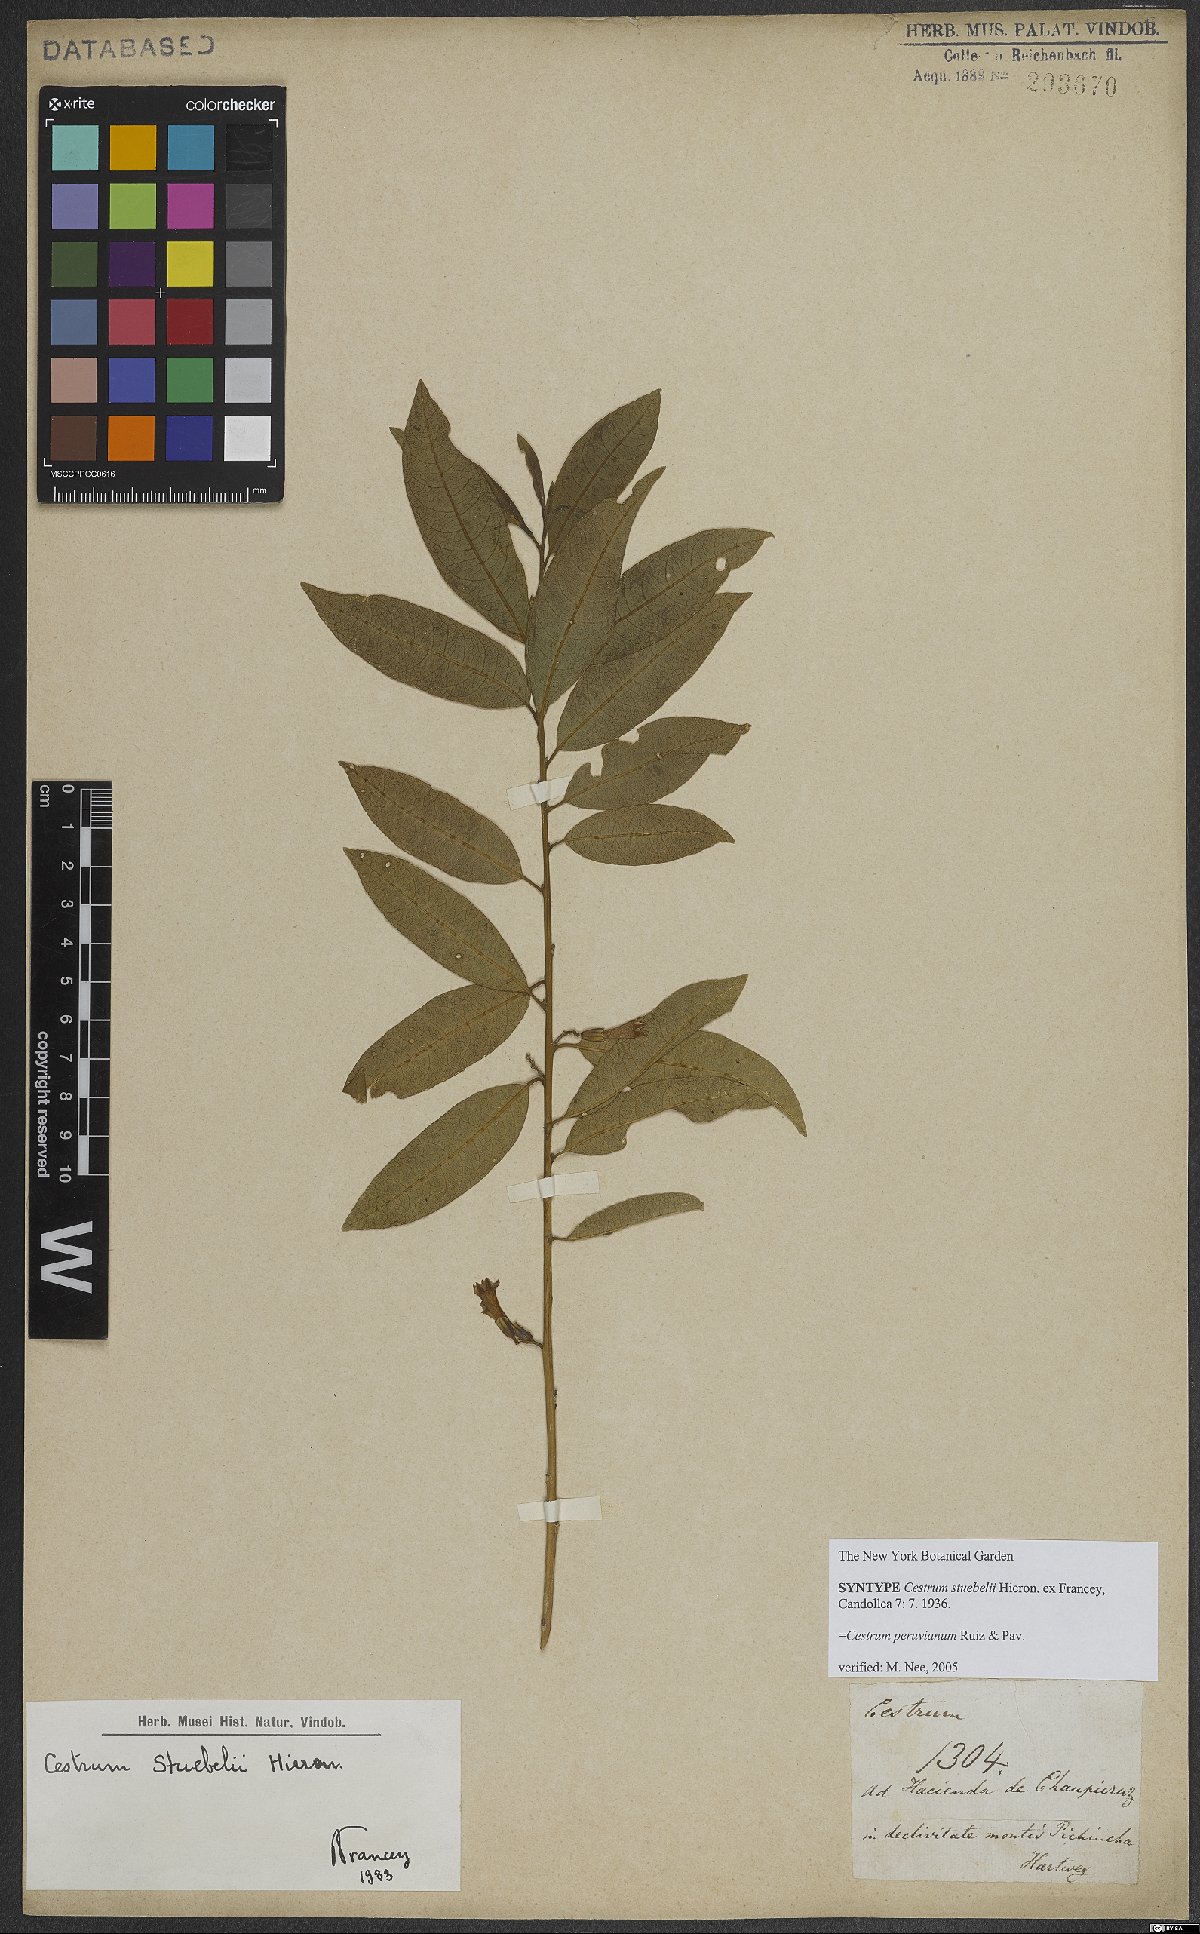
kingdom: Plantae
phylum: Tracheophyta
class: Magnoliopsida
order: Solanales
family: Solanaceae
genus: Cestrum
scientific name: Cestrum peruvianum
